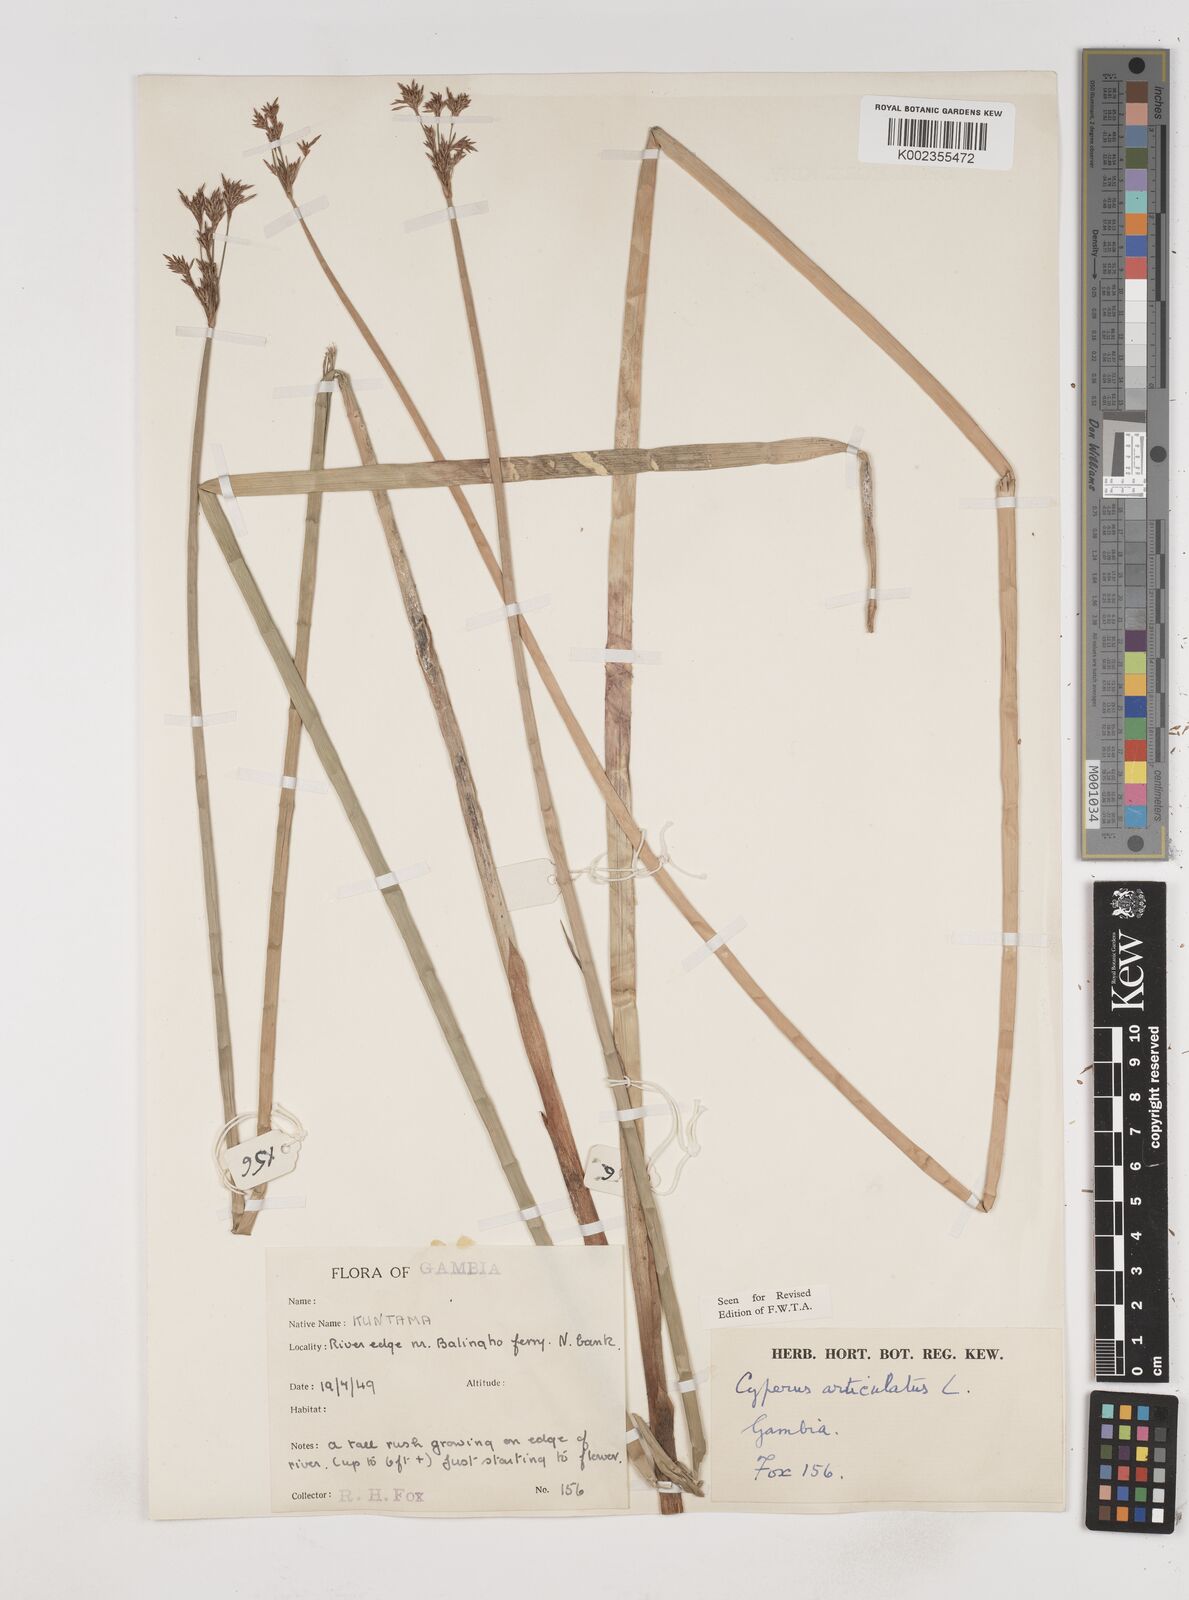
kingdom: Plantae
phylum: Tracheophyta
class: Liliopsida
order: Poales
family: Cyperaceae
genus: Cyperus
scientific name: Cyperus articulatus
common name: Jointed flatsedge
